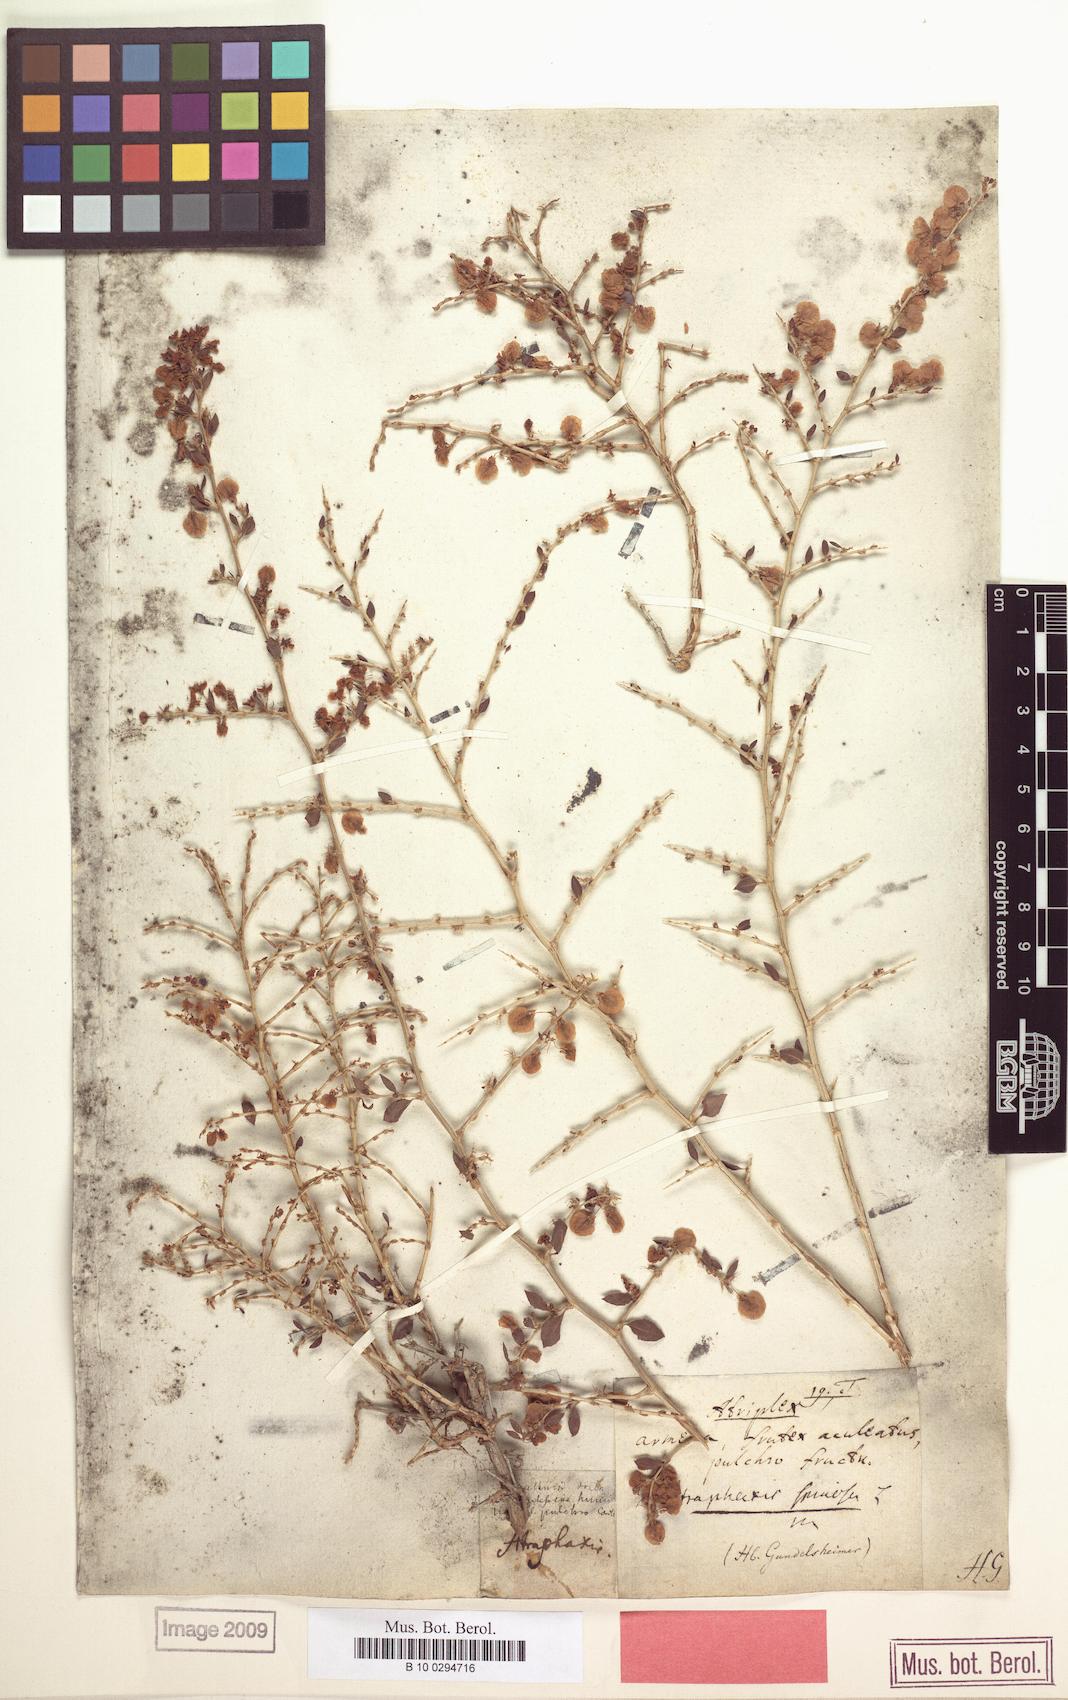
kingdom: Plantae
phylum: Tracheophyta
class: Magnoliopsida
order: Caryophyllales
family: Polygonaceae
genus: Atraphaxis
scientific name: Atraphaxis spinosa
